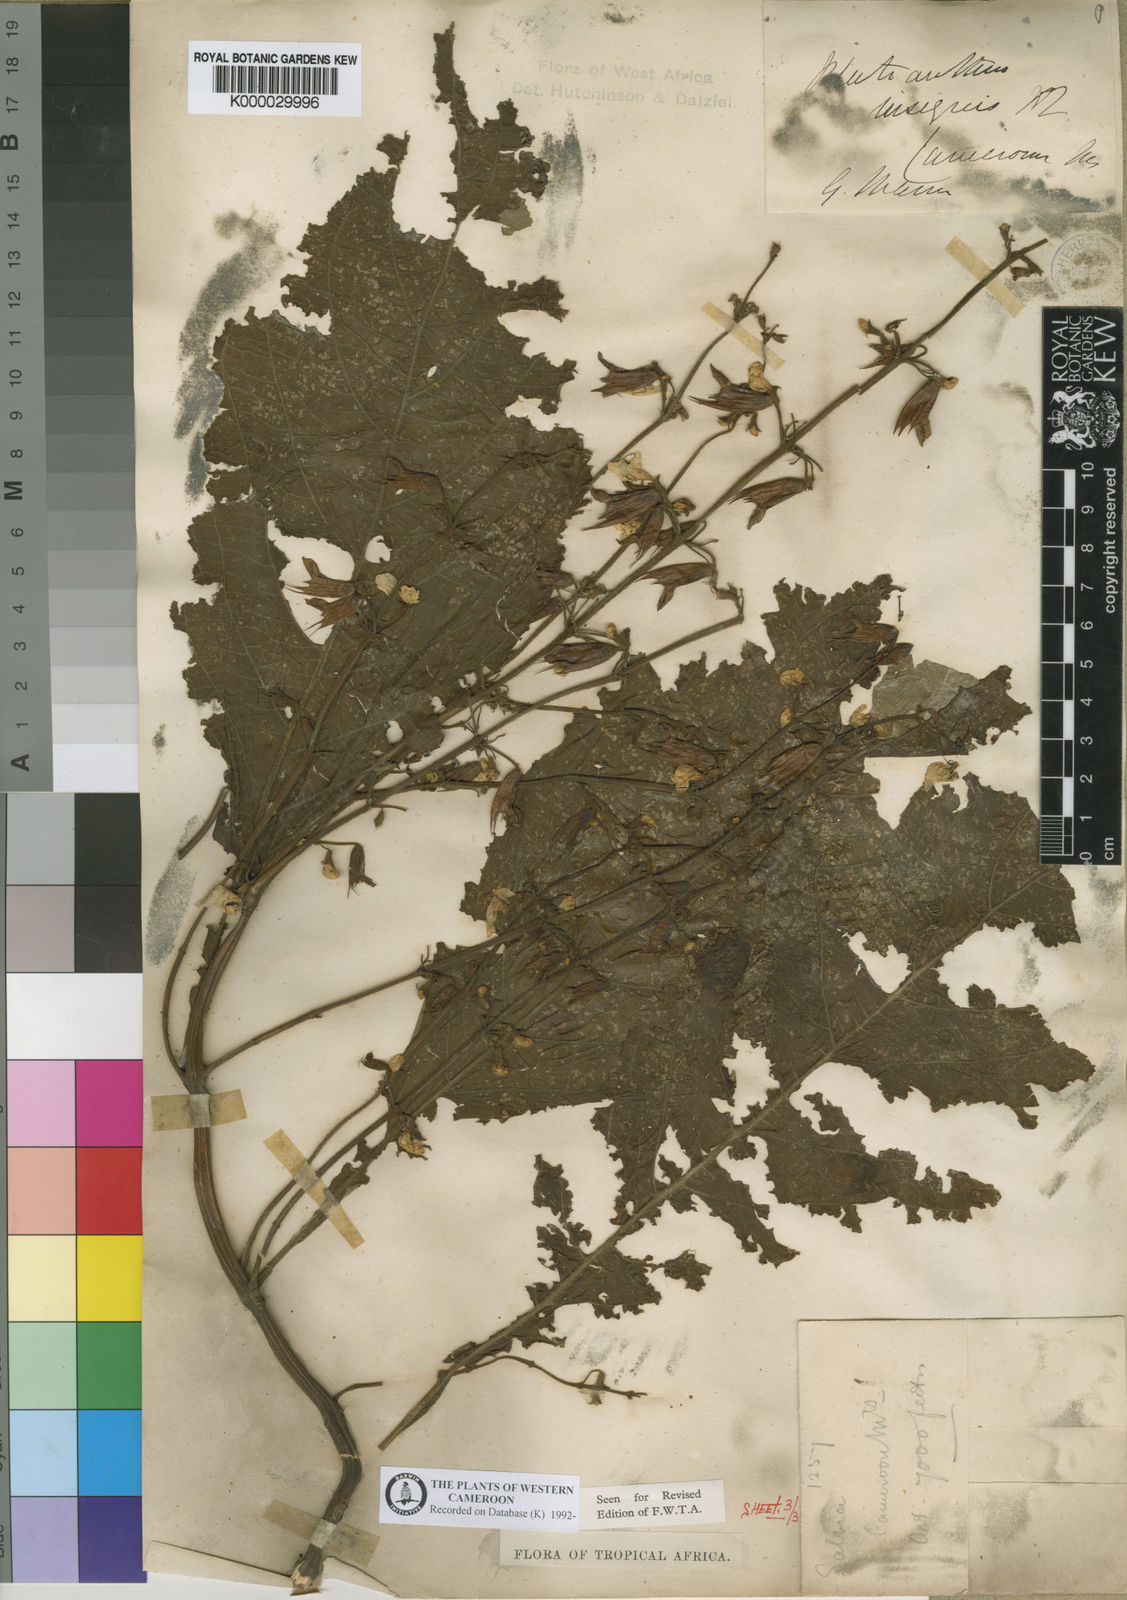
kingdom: Plantae
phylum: Tracheophyta
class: Magnoliopsida
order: Lamiales
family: Lamiaceae
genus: Coleus
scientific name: Coleus insignis
